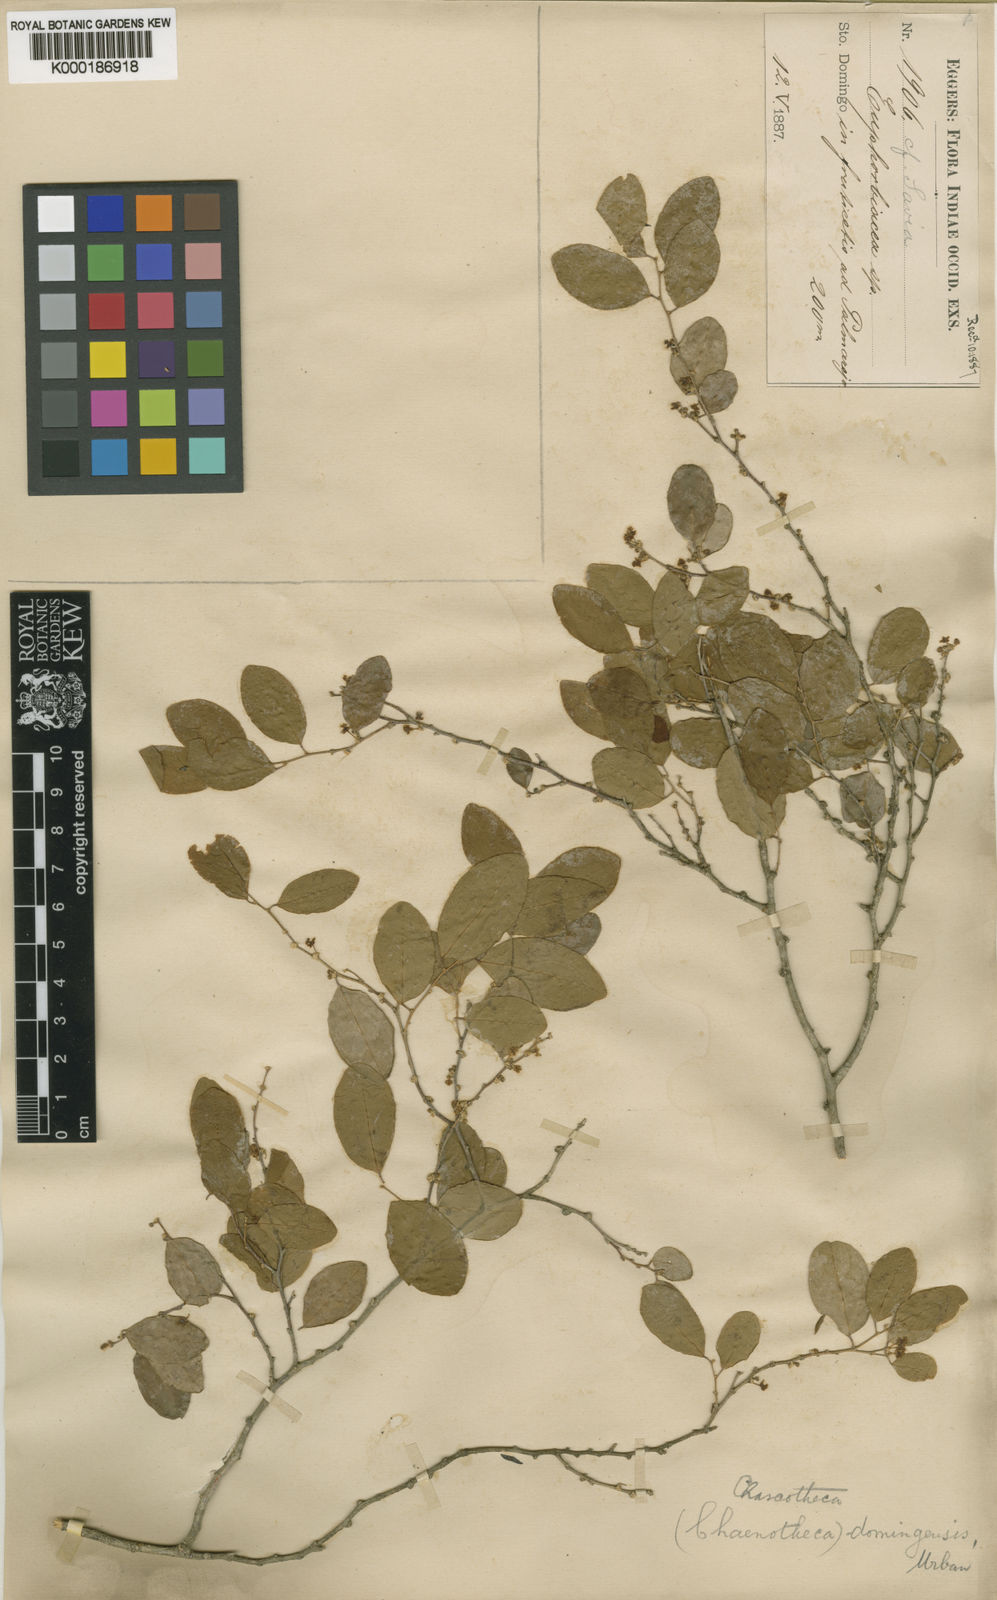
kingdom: Plantae
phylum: Tracheophyta
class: Magnoliopsida
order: Malpighiales
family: Phyllanthaceae
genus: Chascotheca
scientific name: Chascotheca neopeltandra
